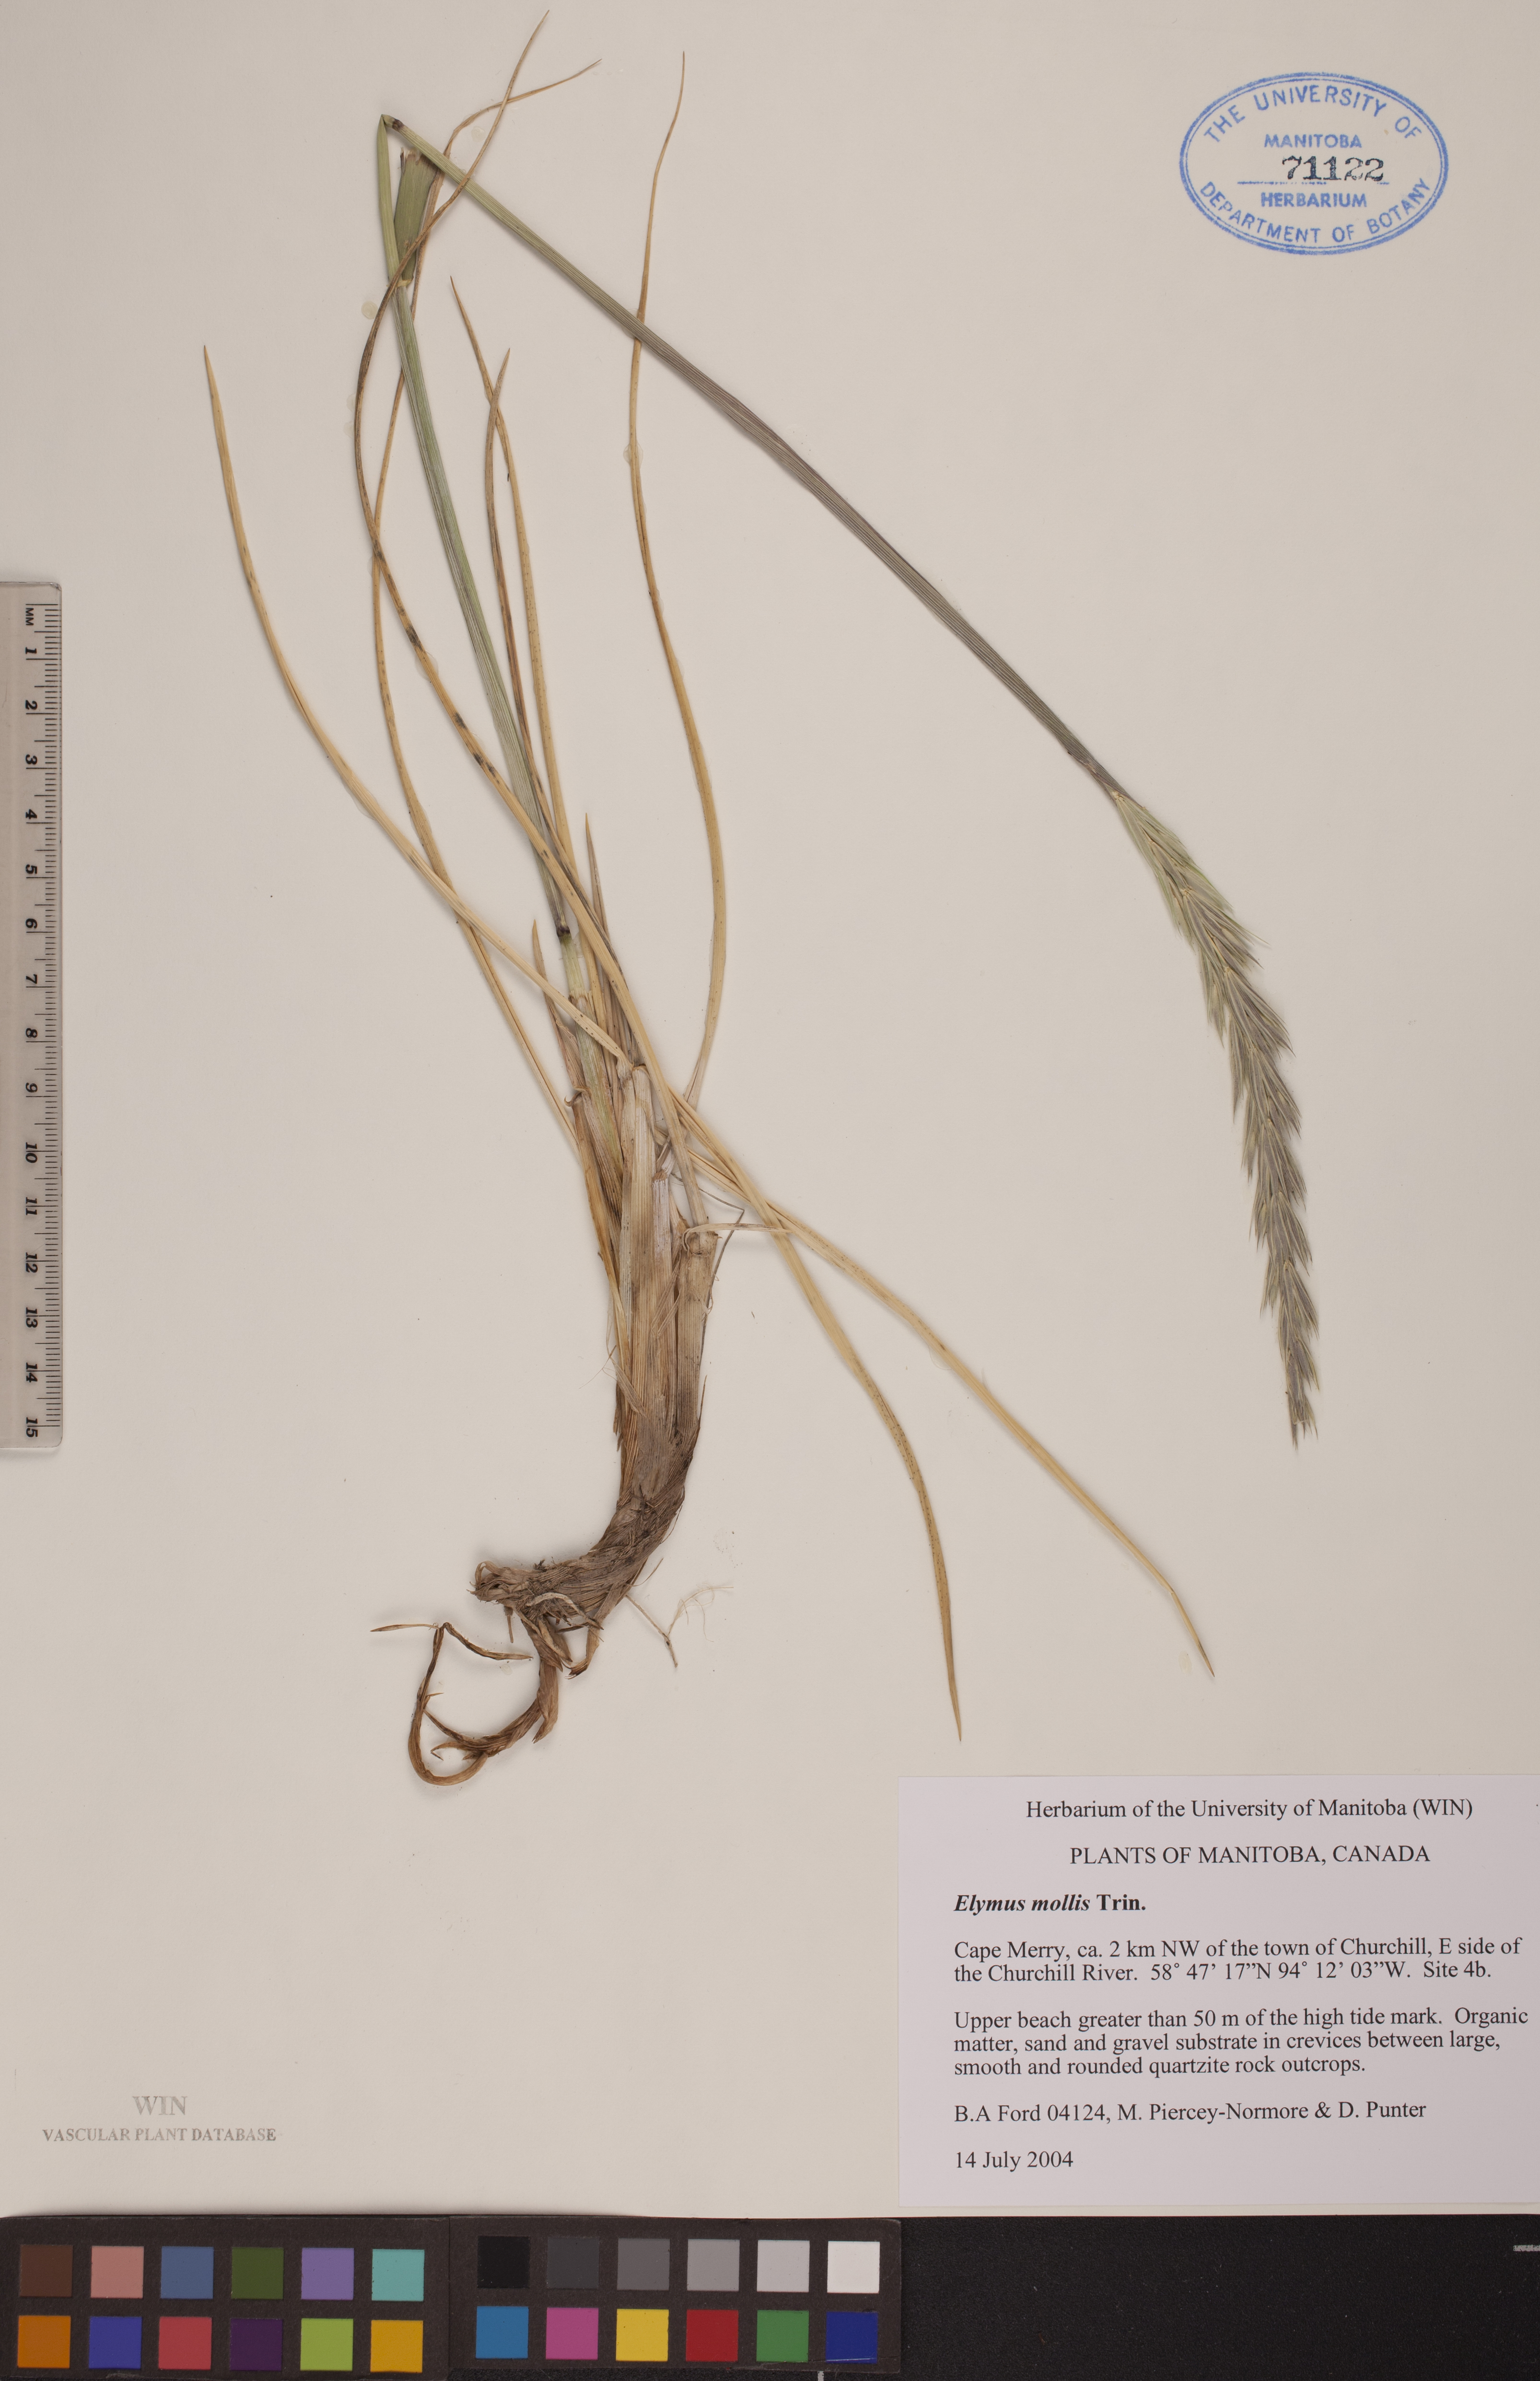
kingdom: Plantae
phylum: Tracheophyta
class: Liliopsida
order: Poales
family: Poaceae
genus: Leymus
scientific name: Leymus mollis
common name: American dune grass
